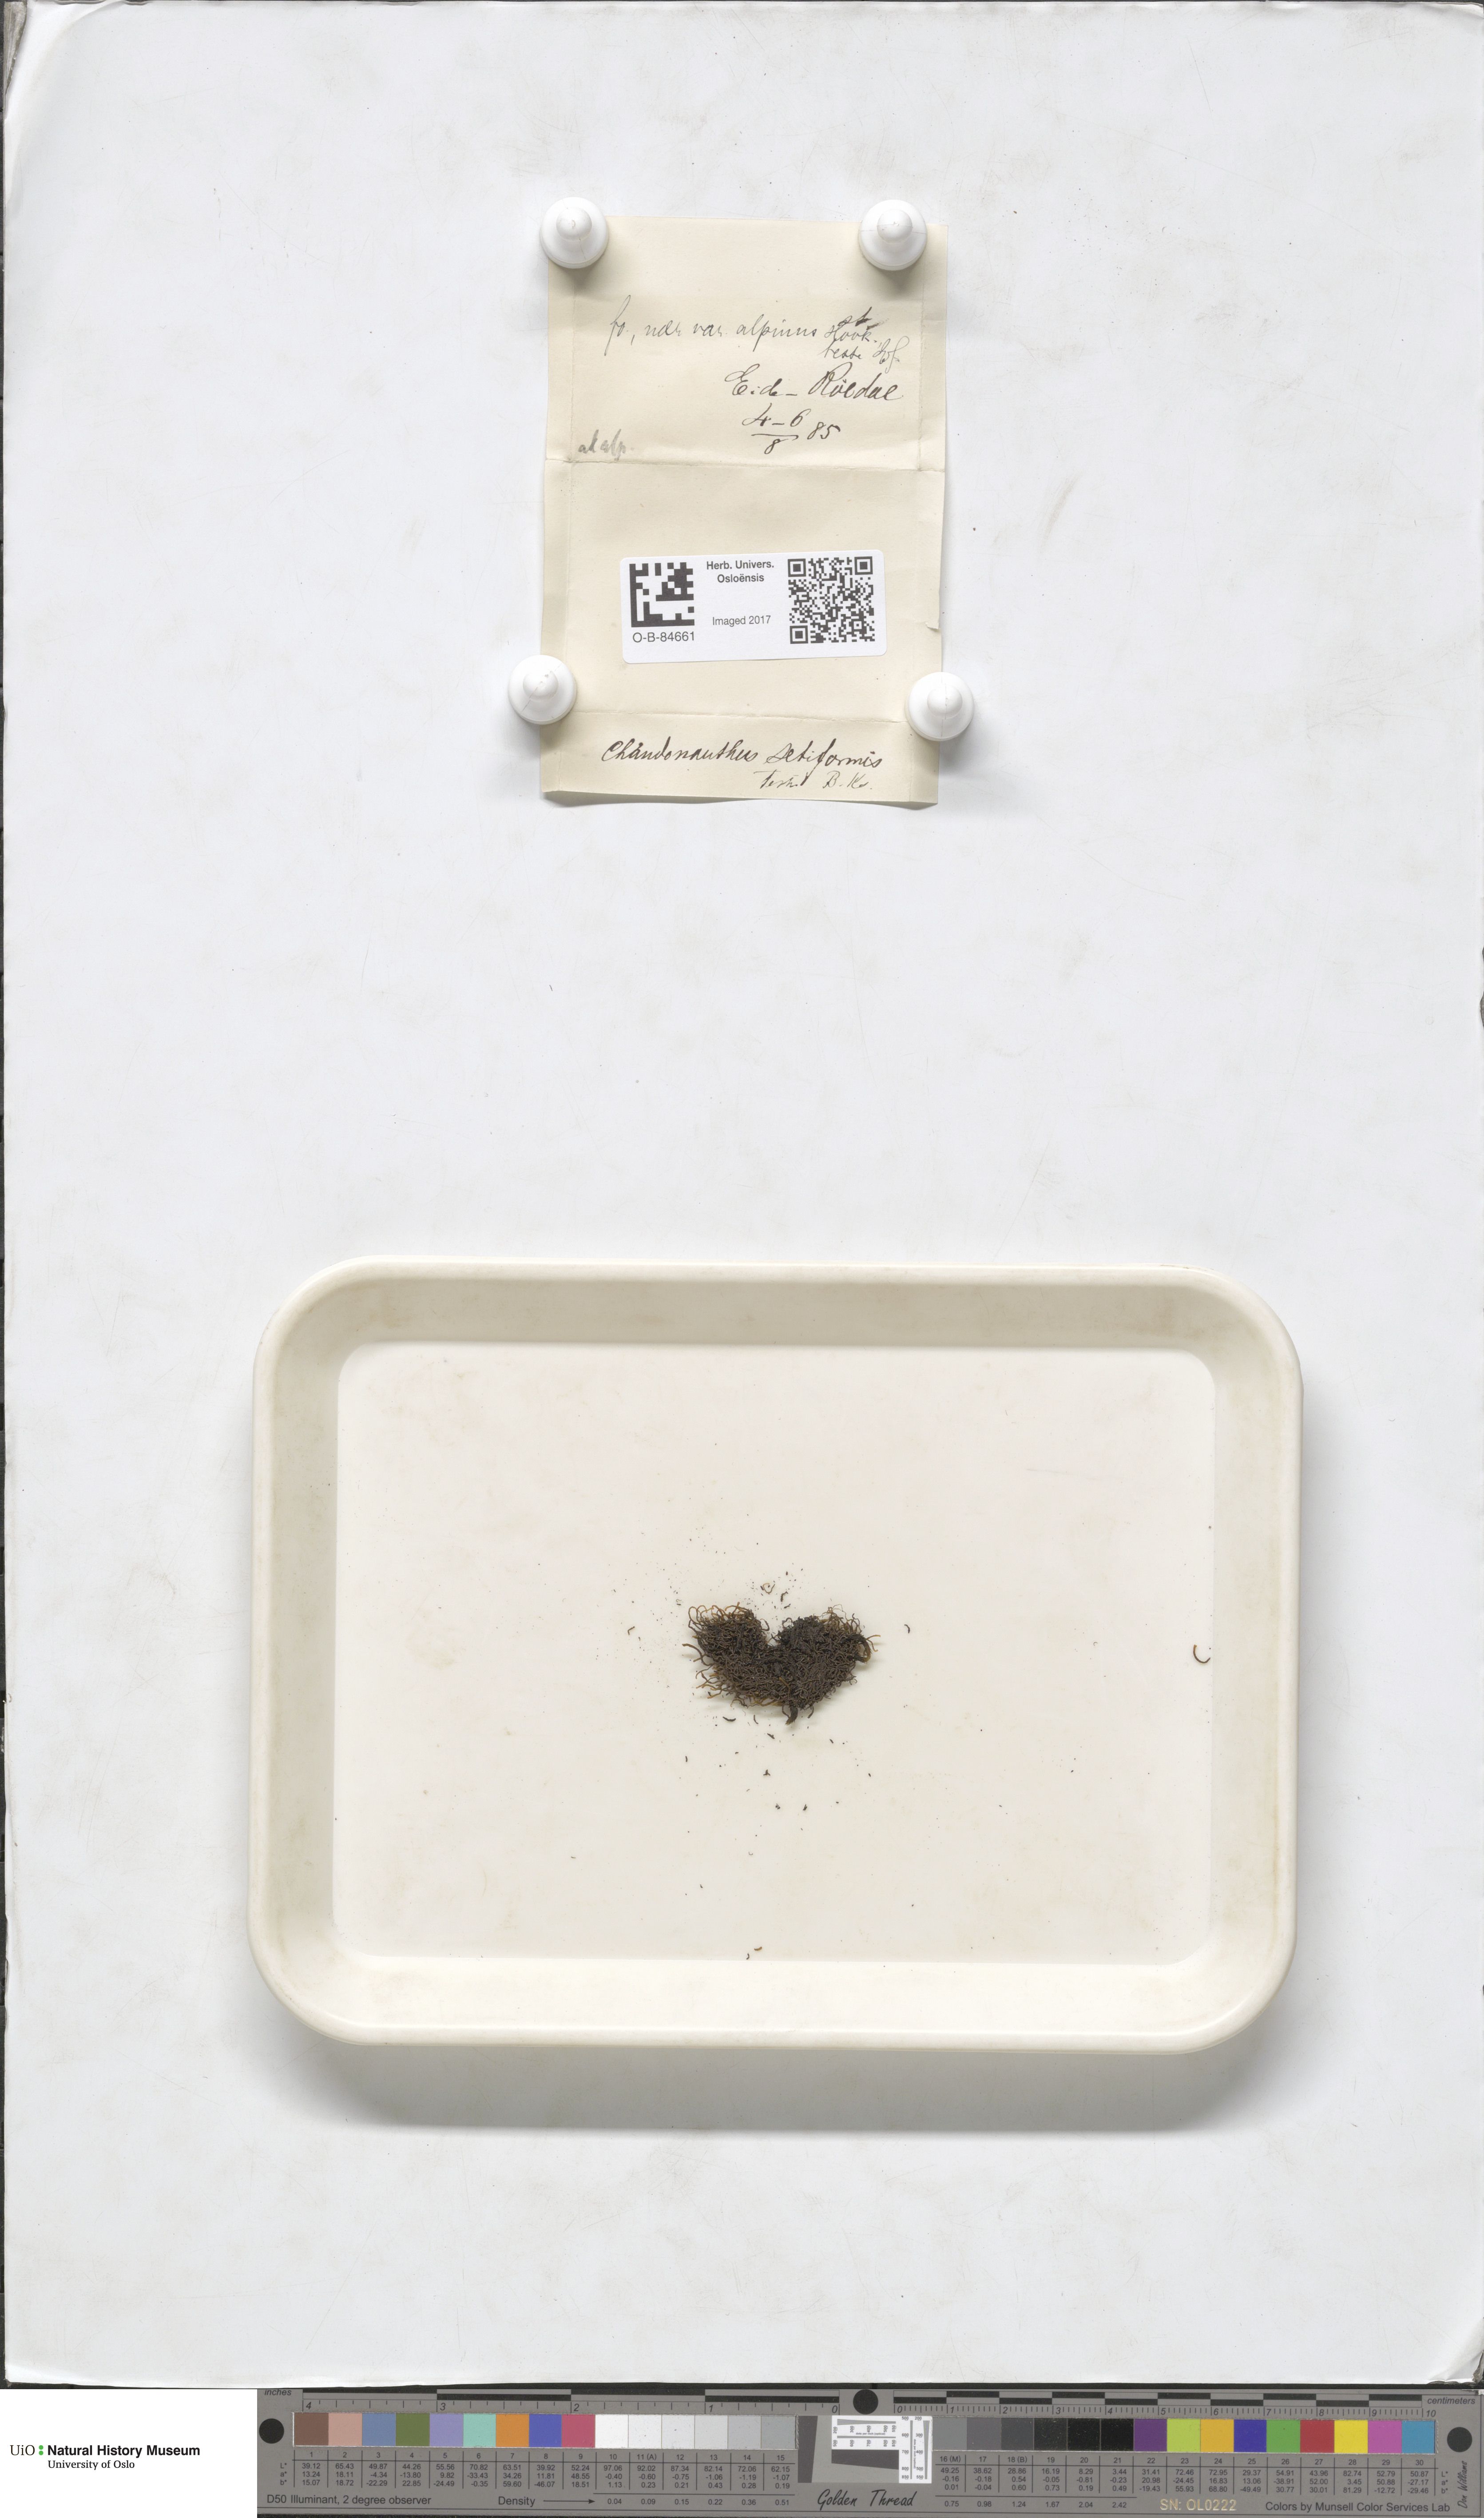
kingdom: Plantae
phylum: Marchantiophyta
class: Jungermanniopsida
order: Jungermanniales
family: Anastrophyllaceae
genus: Tetralophozia
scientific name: Tetralophozia setiformis
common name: Monster pawwort
